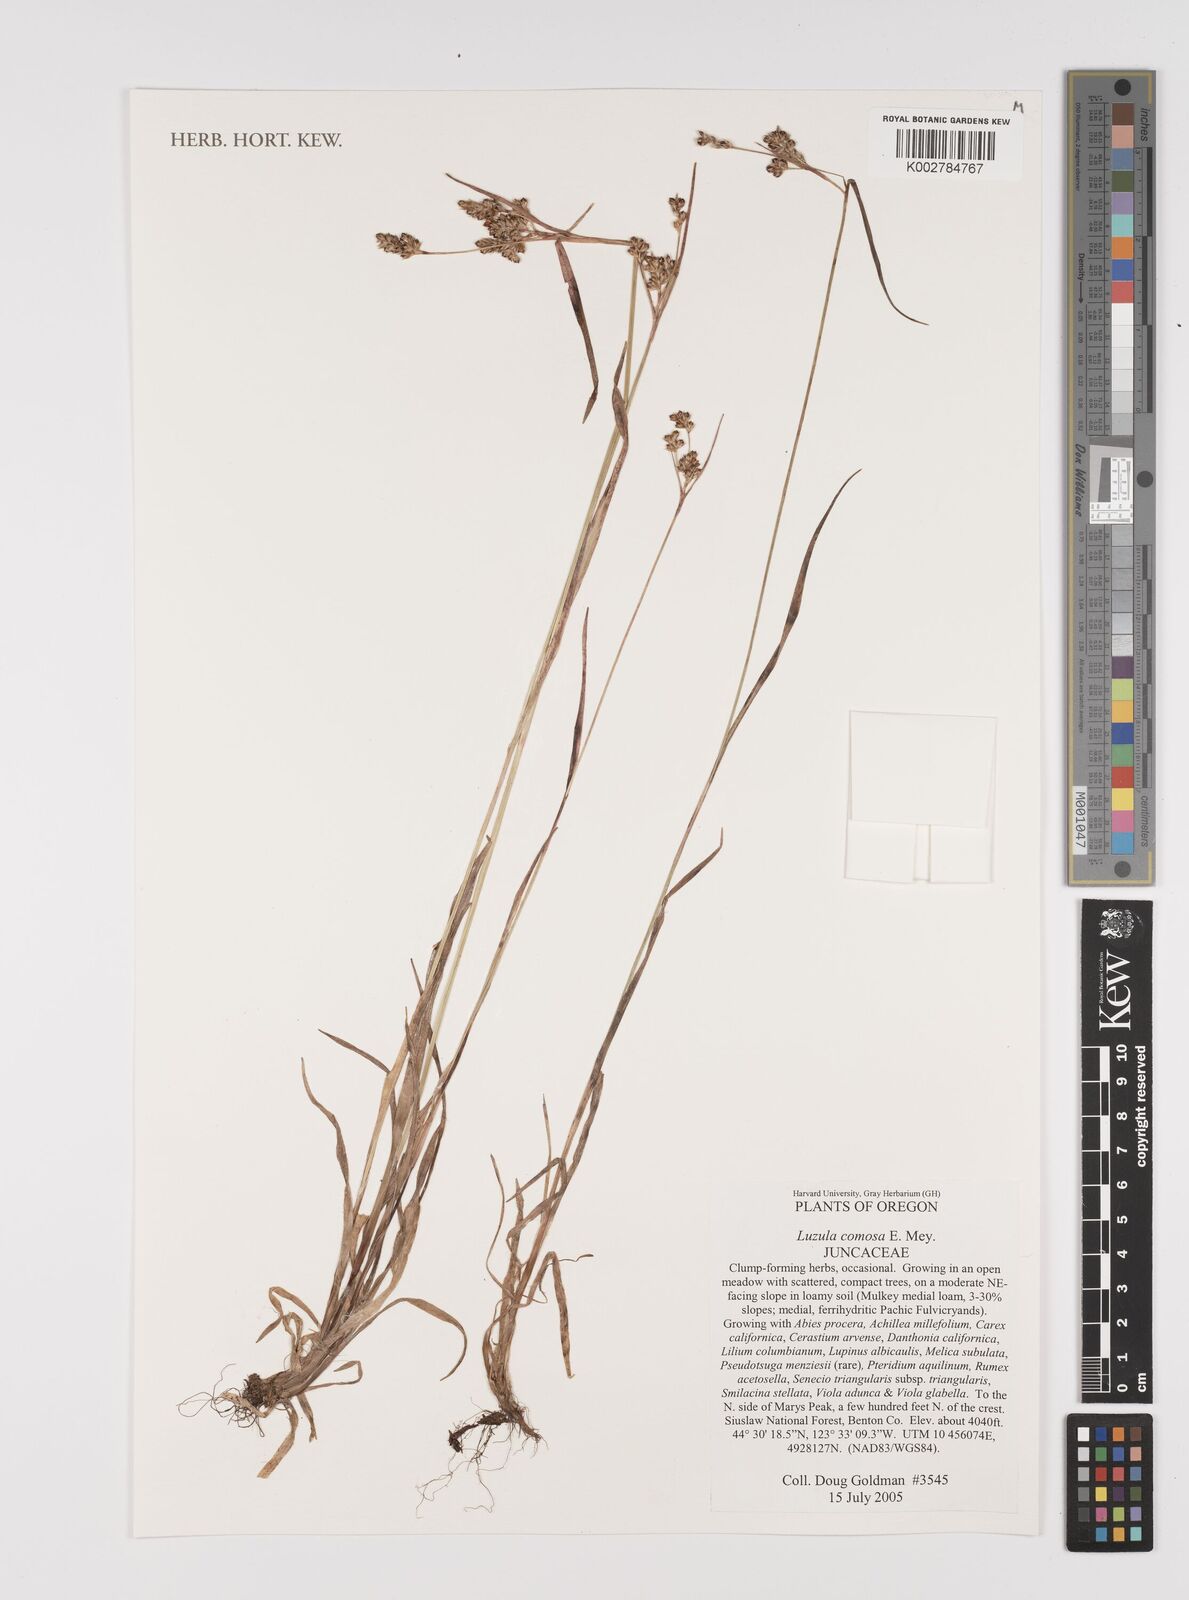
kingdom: Plantae
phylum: Tracheophyta
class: Liliopsida
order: Poales
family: Juncaceae
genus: Luzula
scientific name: Luzula comosa
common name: Pacific woodrush
